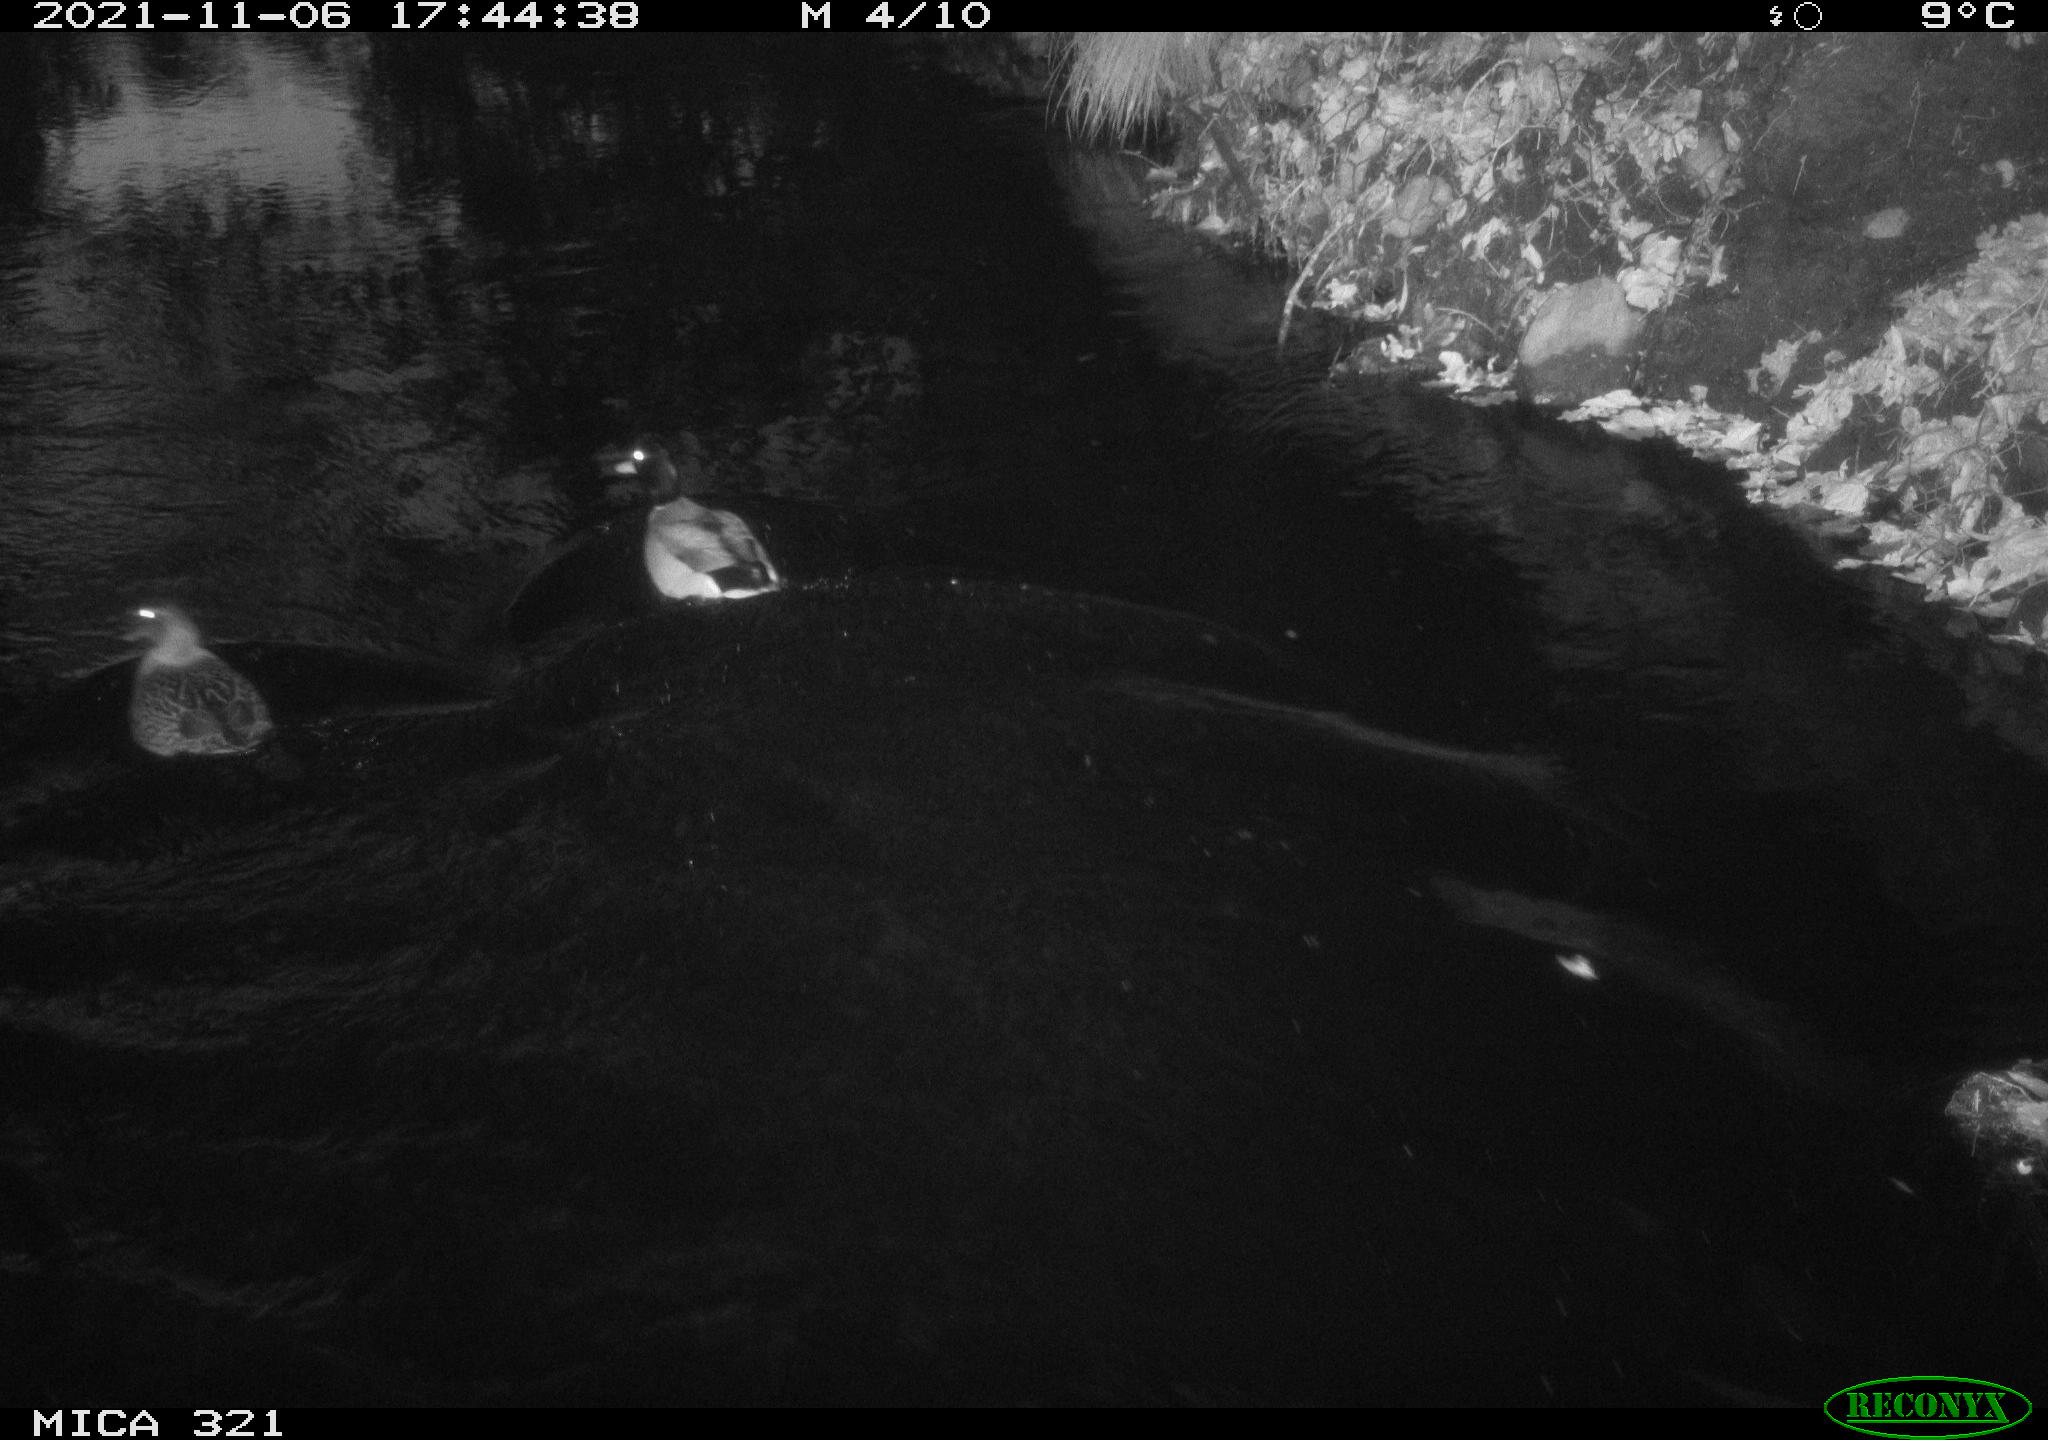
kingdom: Animalia
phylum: Chordata
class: Aves
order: Anseriformes
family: Anatidae
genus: Anas
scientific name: Anas platyrhynchos
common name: Mallard
